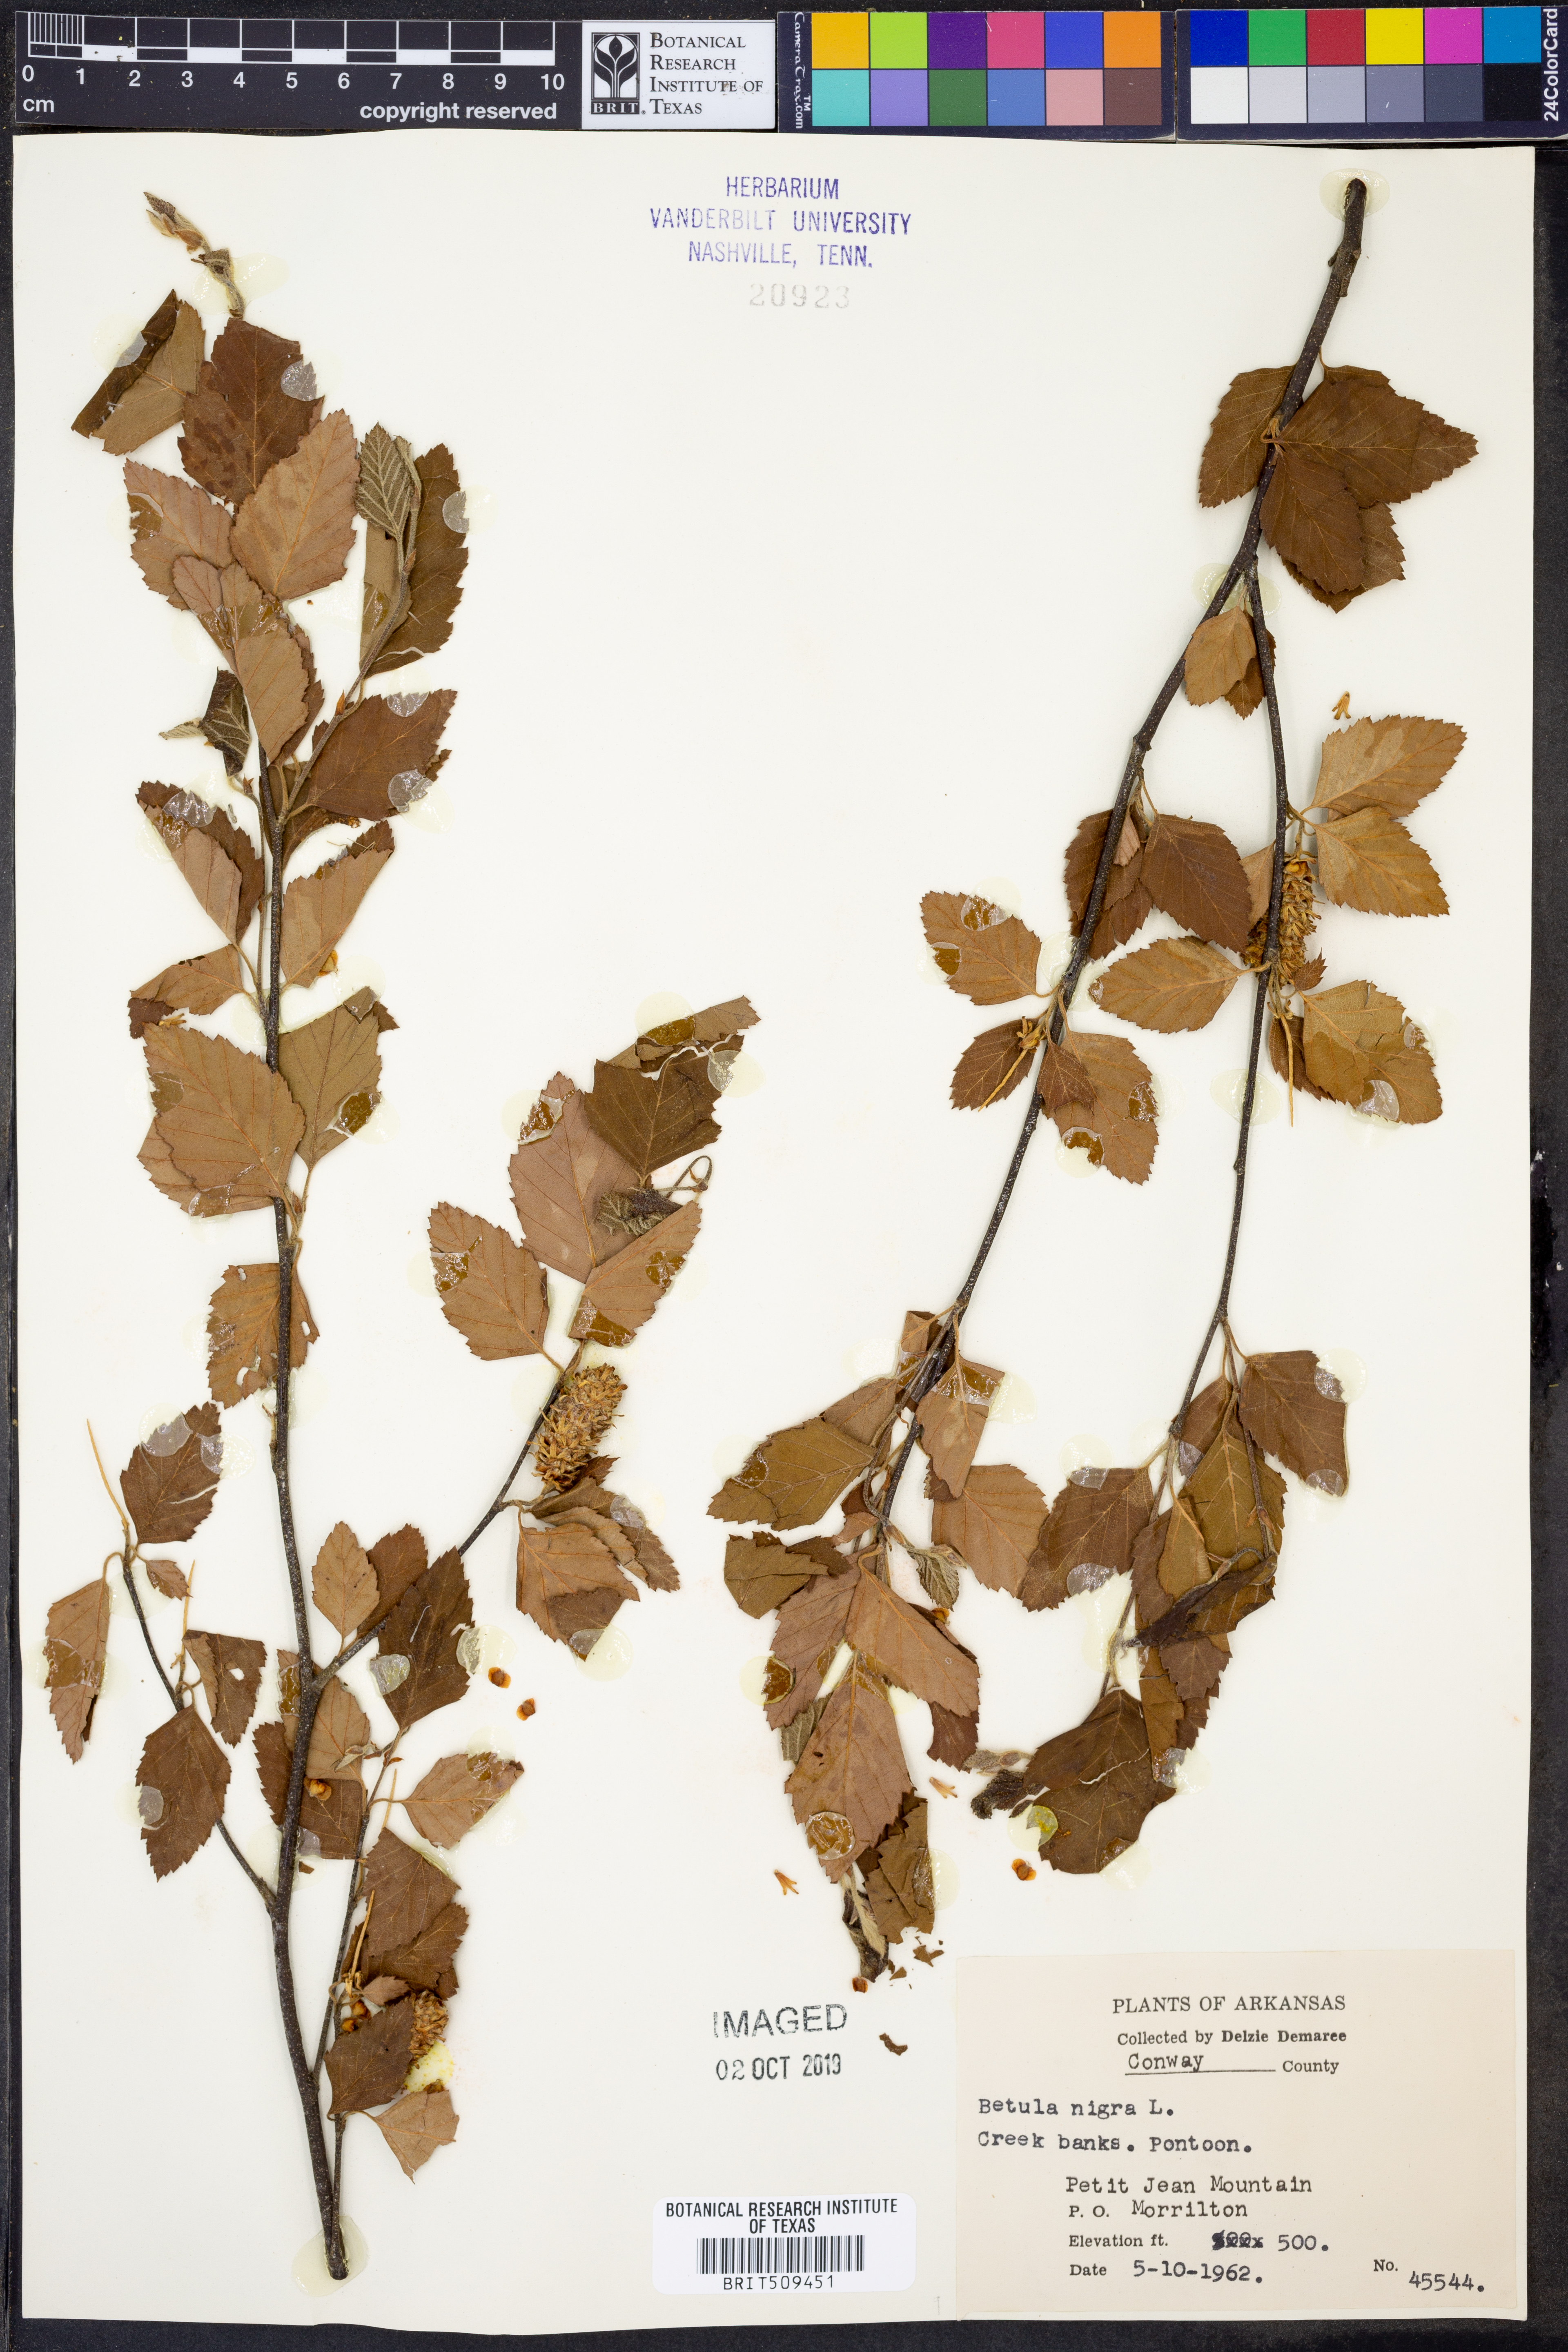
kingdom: Plantae
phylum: Tracheophyta
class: Magnoliopsida
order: Fagales
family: Betulaceae
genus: Betula
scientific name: Betula nigra
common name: Black birch
